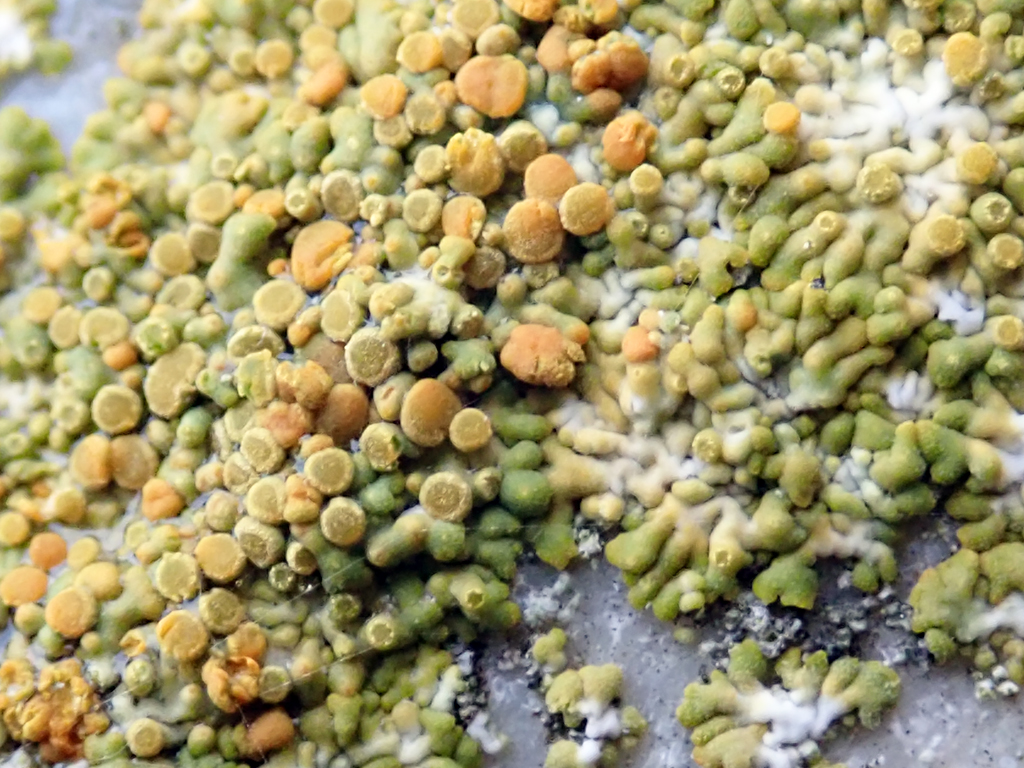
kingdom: Fungi
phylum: Ascomycota
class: Lecanoromycetes
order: Teloschistales
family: Teloschistaceae
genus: Calogaya
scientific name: Calogaya
